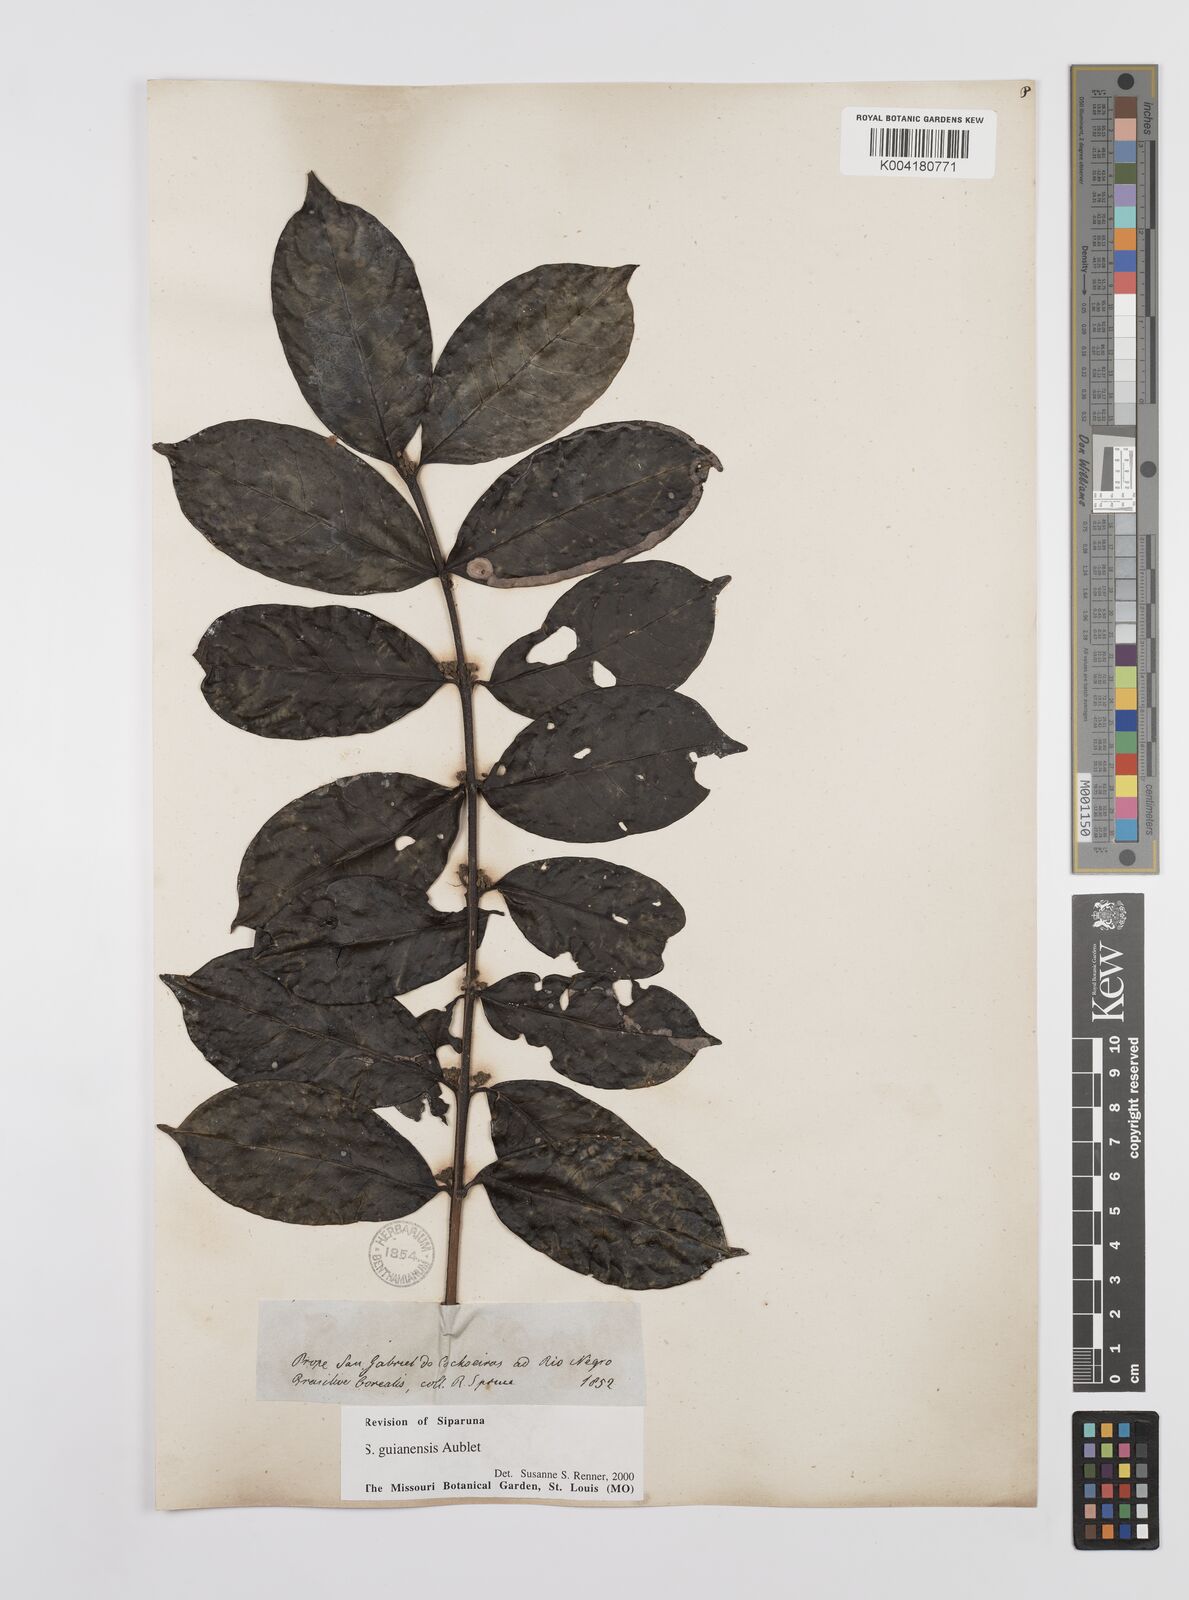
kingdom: Plantae
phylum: Tracheophyta
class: Magnoliopsida
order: Laurales
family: Siparunaceae
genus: Siparuna
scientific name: Siparuna guianensis
